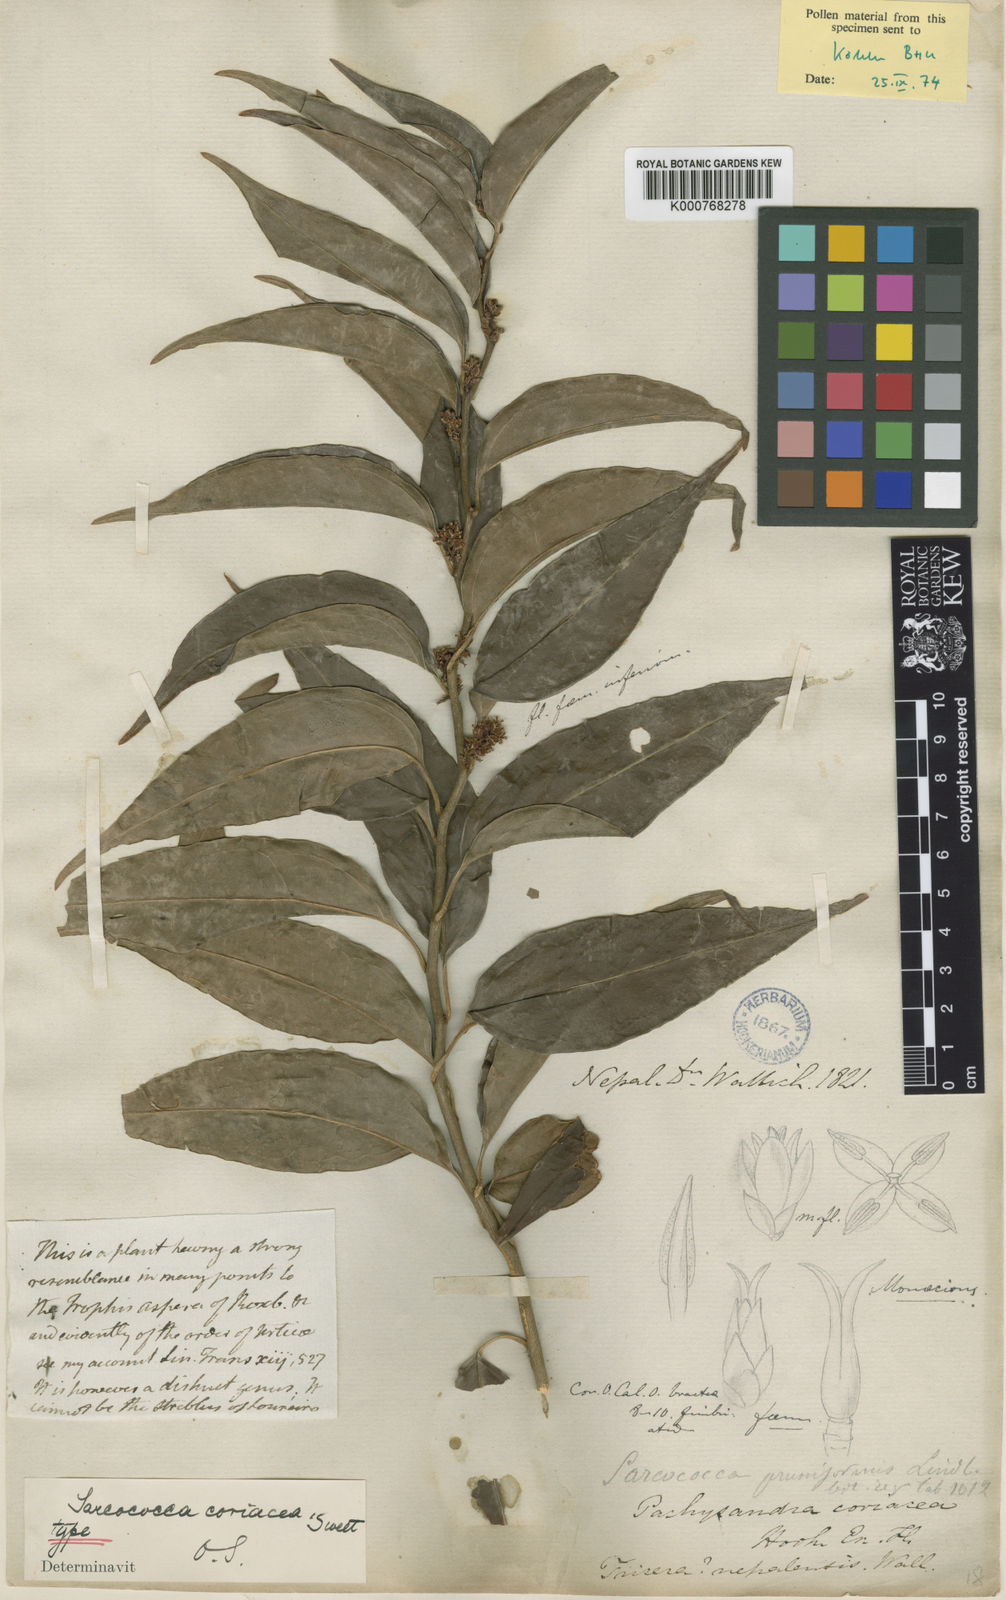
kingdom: Plantae
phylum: Tracheophyta
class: Magnoliopsida
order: Buxales
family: Buxaceae
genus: Sarcococca
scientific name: Sarcococca coriacea
